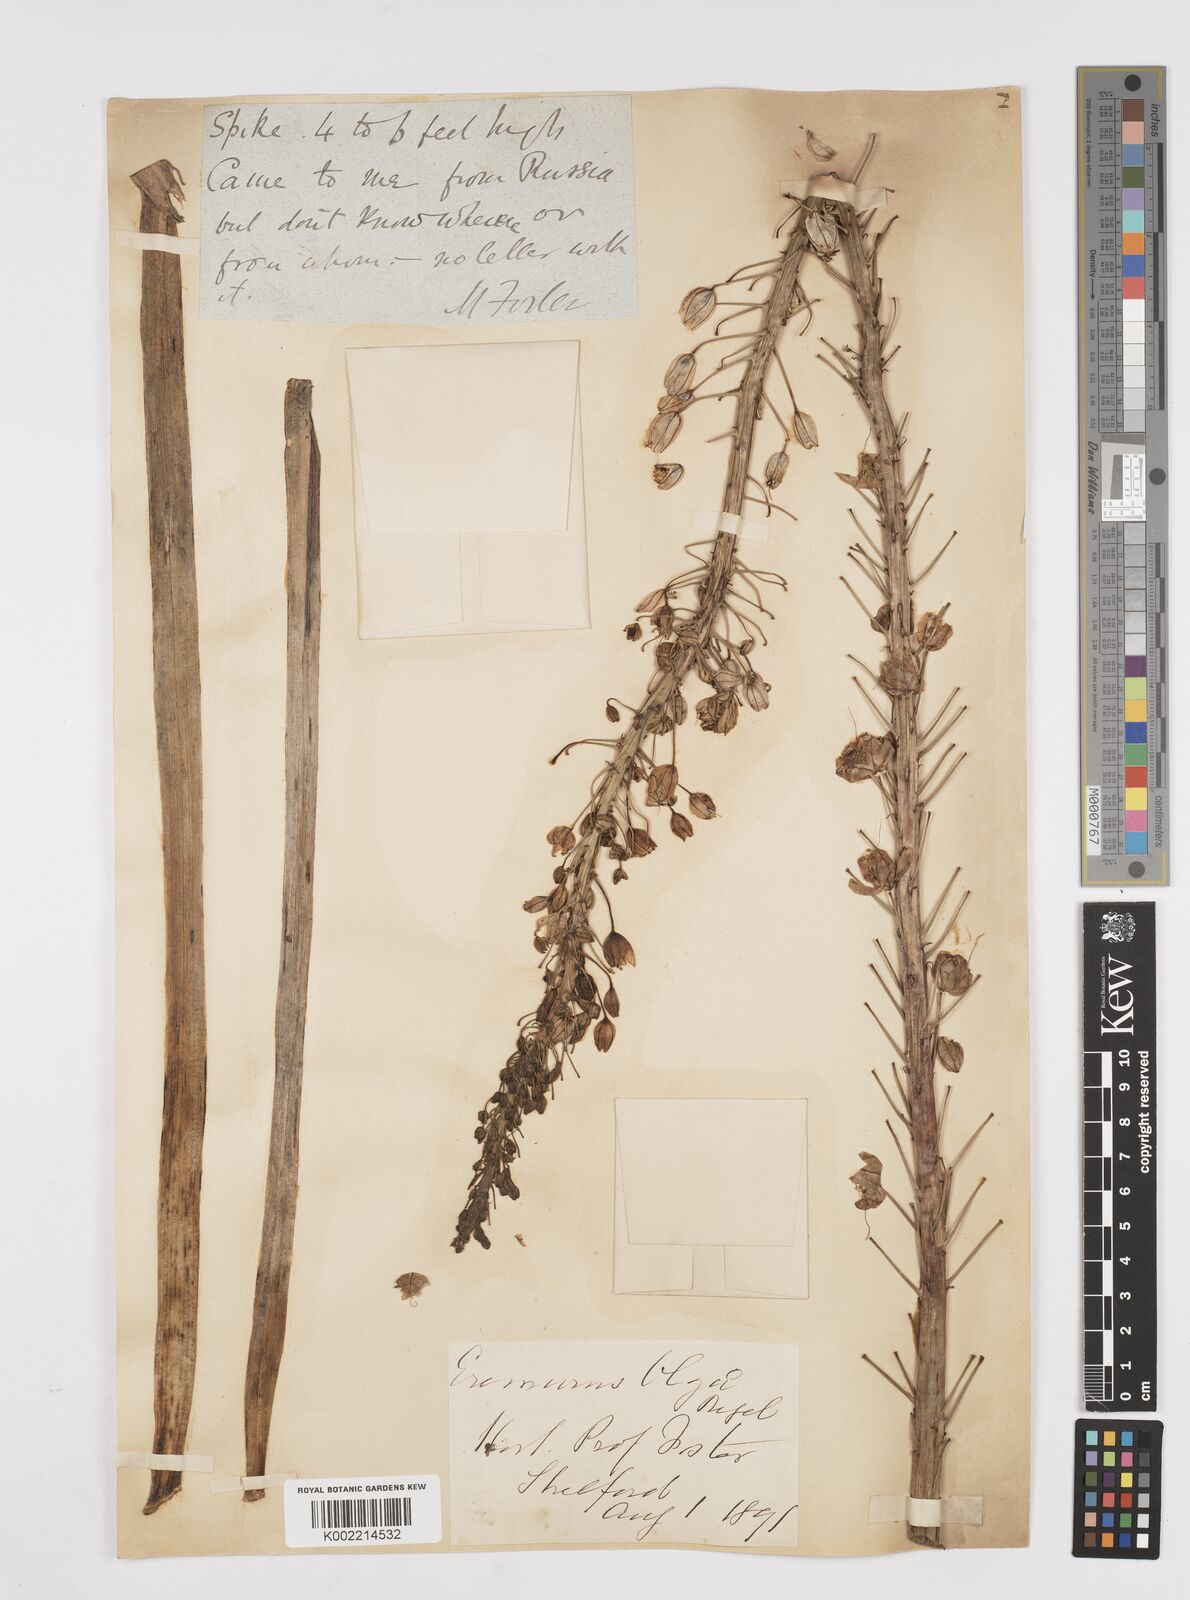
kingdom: Plantae
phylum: Tracheophyta
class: Liliopsida
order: Asparagales
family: Asphodelaceae
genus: Eremurus
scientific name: Eremurus olgae
